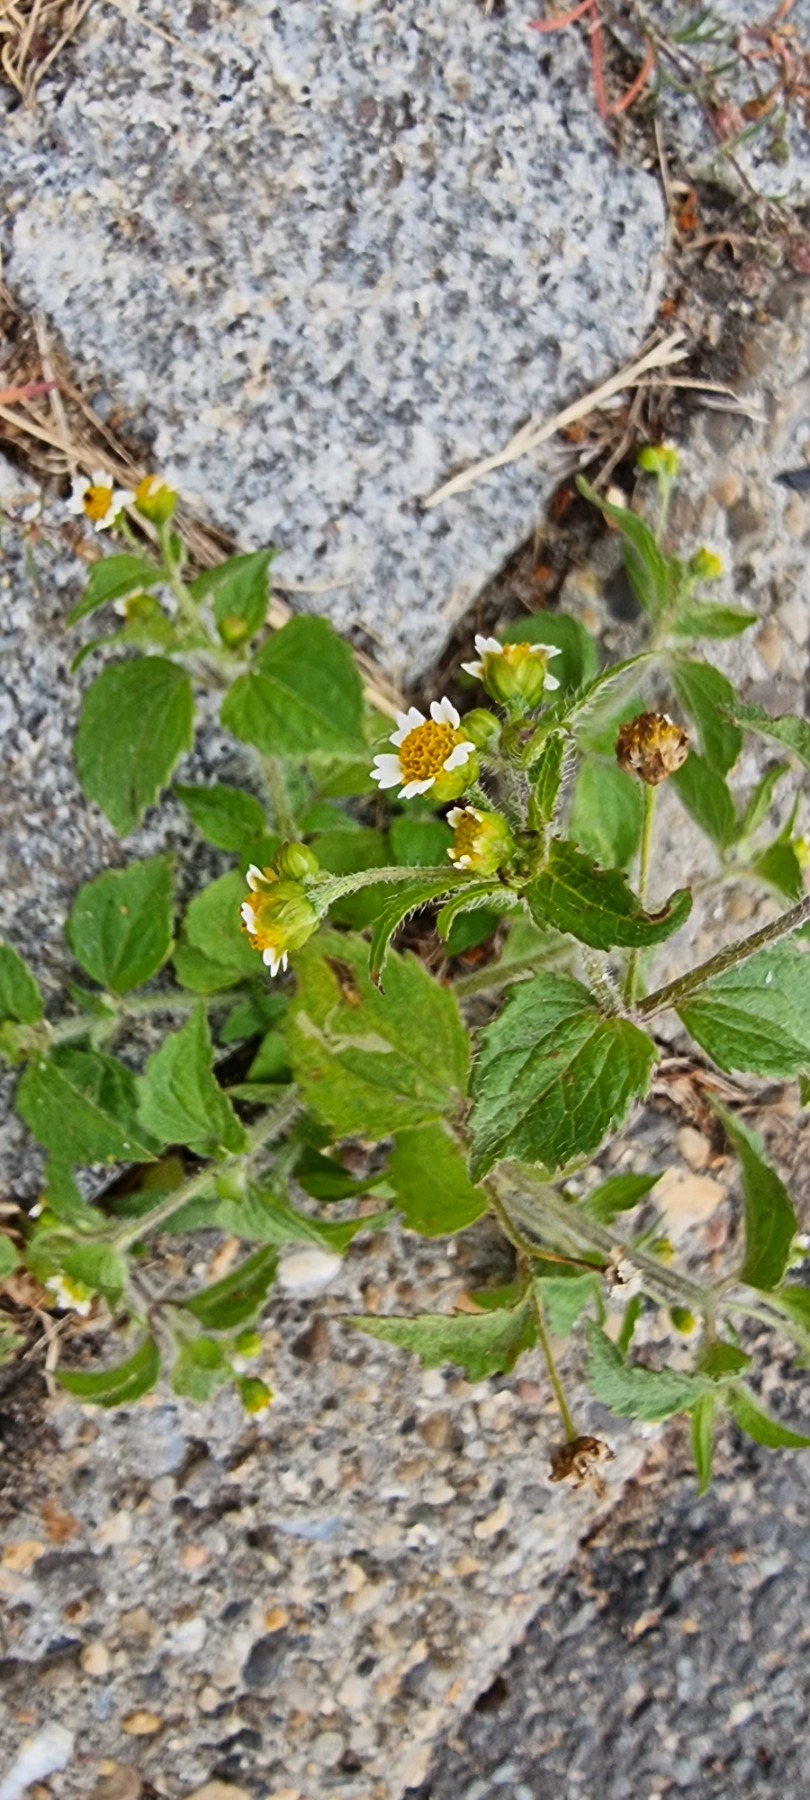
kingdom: Plantae
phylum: Tracheophyta
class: Magnoliopsida
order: Asterales
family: Asteraceae
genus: Galinsoga
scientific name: Galinsoga quadriradiata
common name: Kirtel-kortstråle
